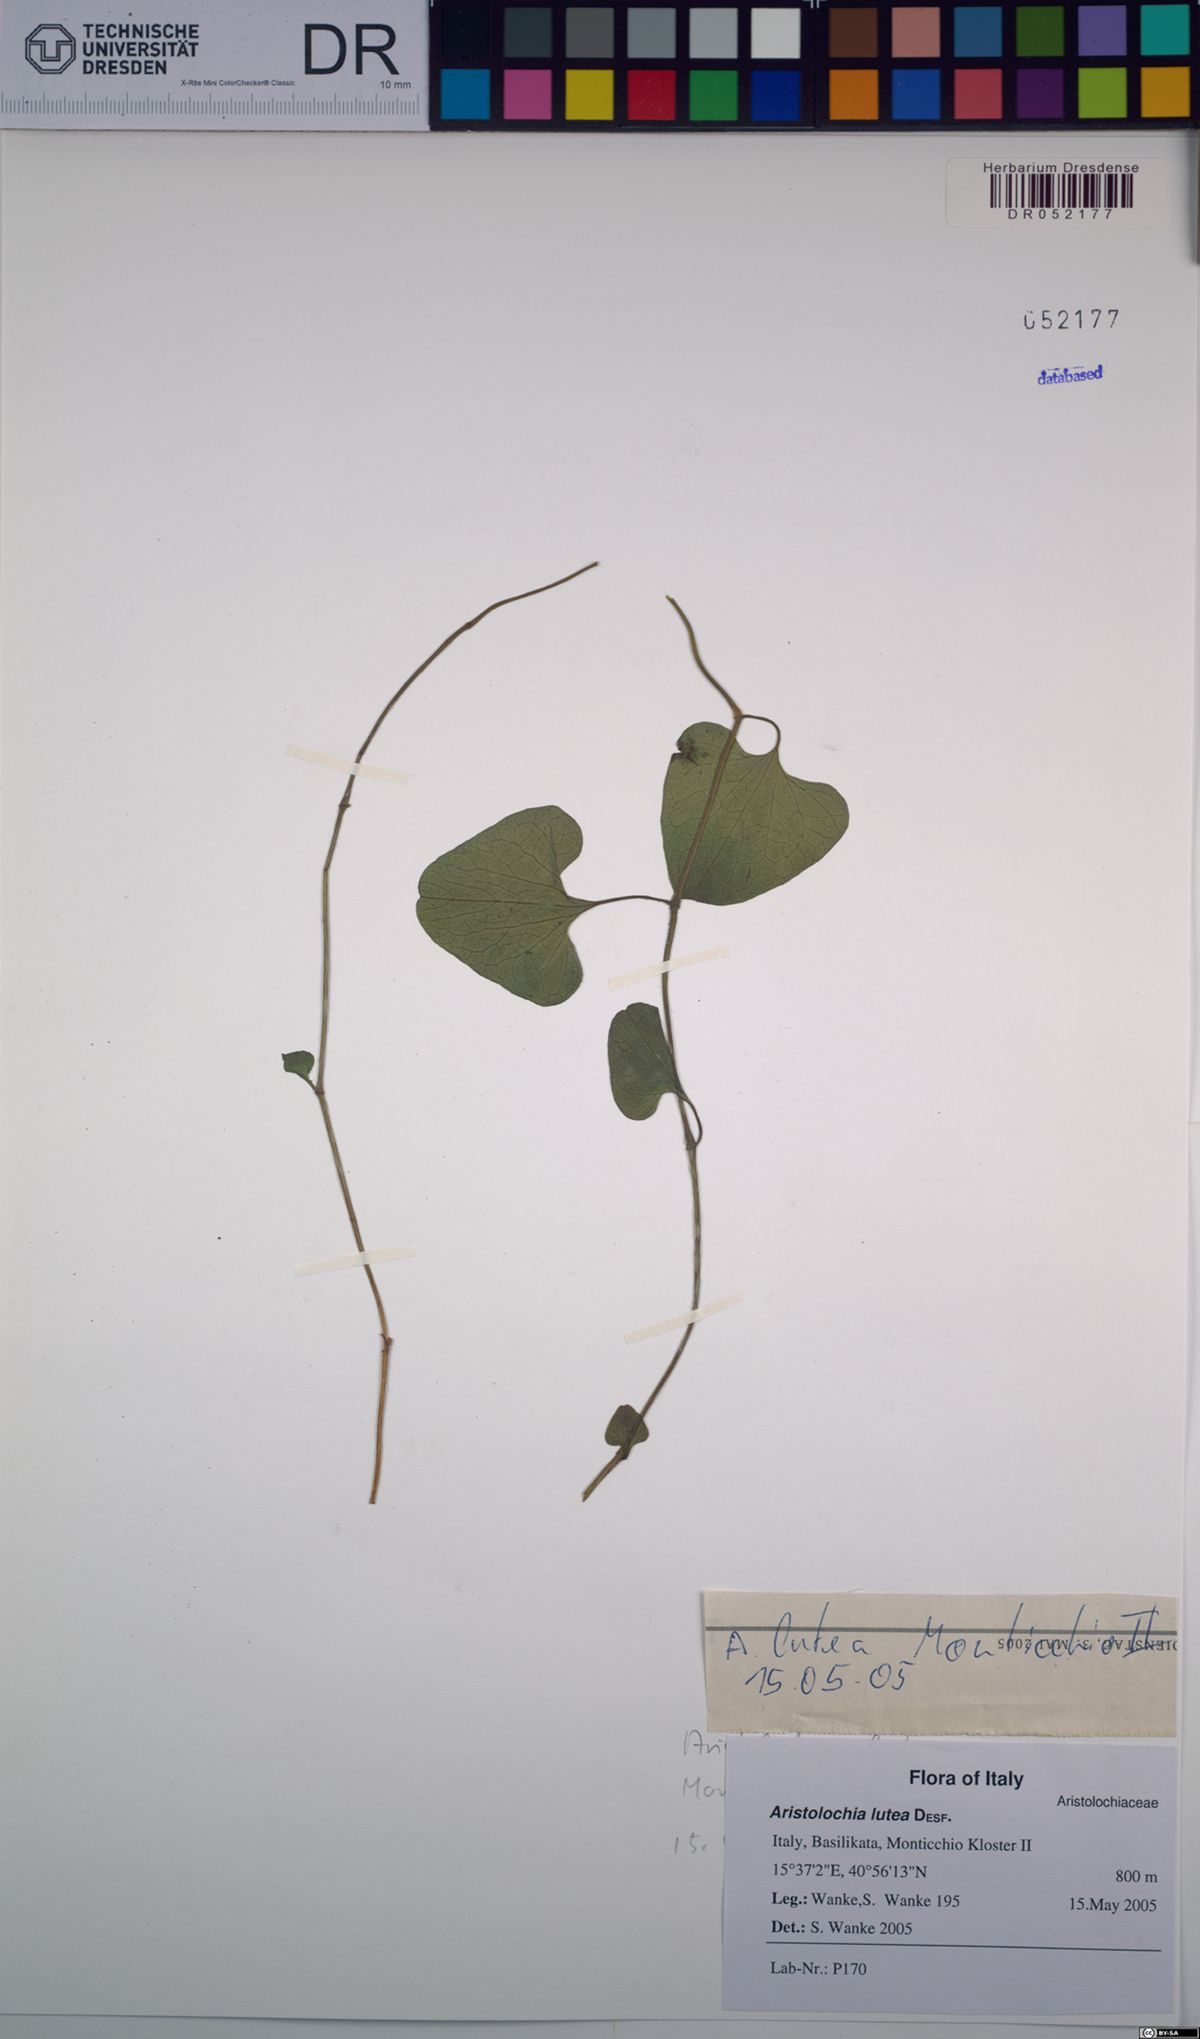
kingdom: Plantae
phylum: Tracheophyta
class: Magnoliopsida
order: Piperales
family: Aristolochiaceae
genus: Aristolochia
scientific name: Aristolochia lutea
